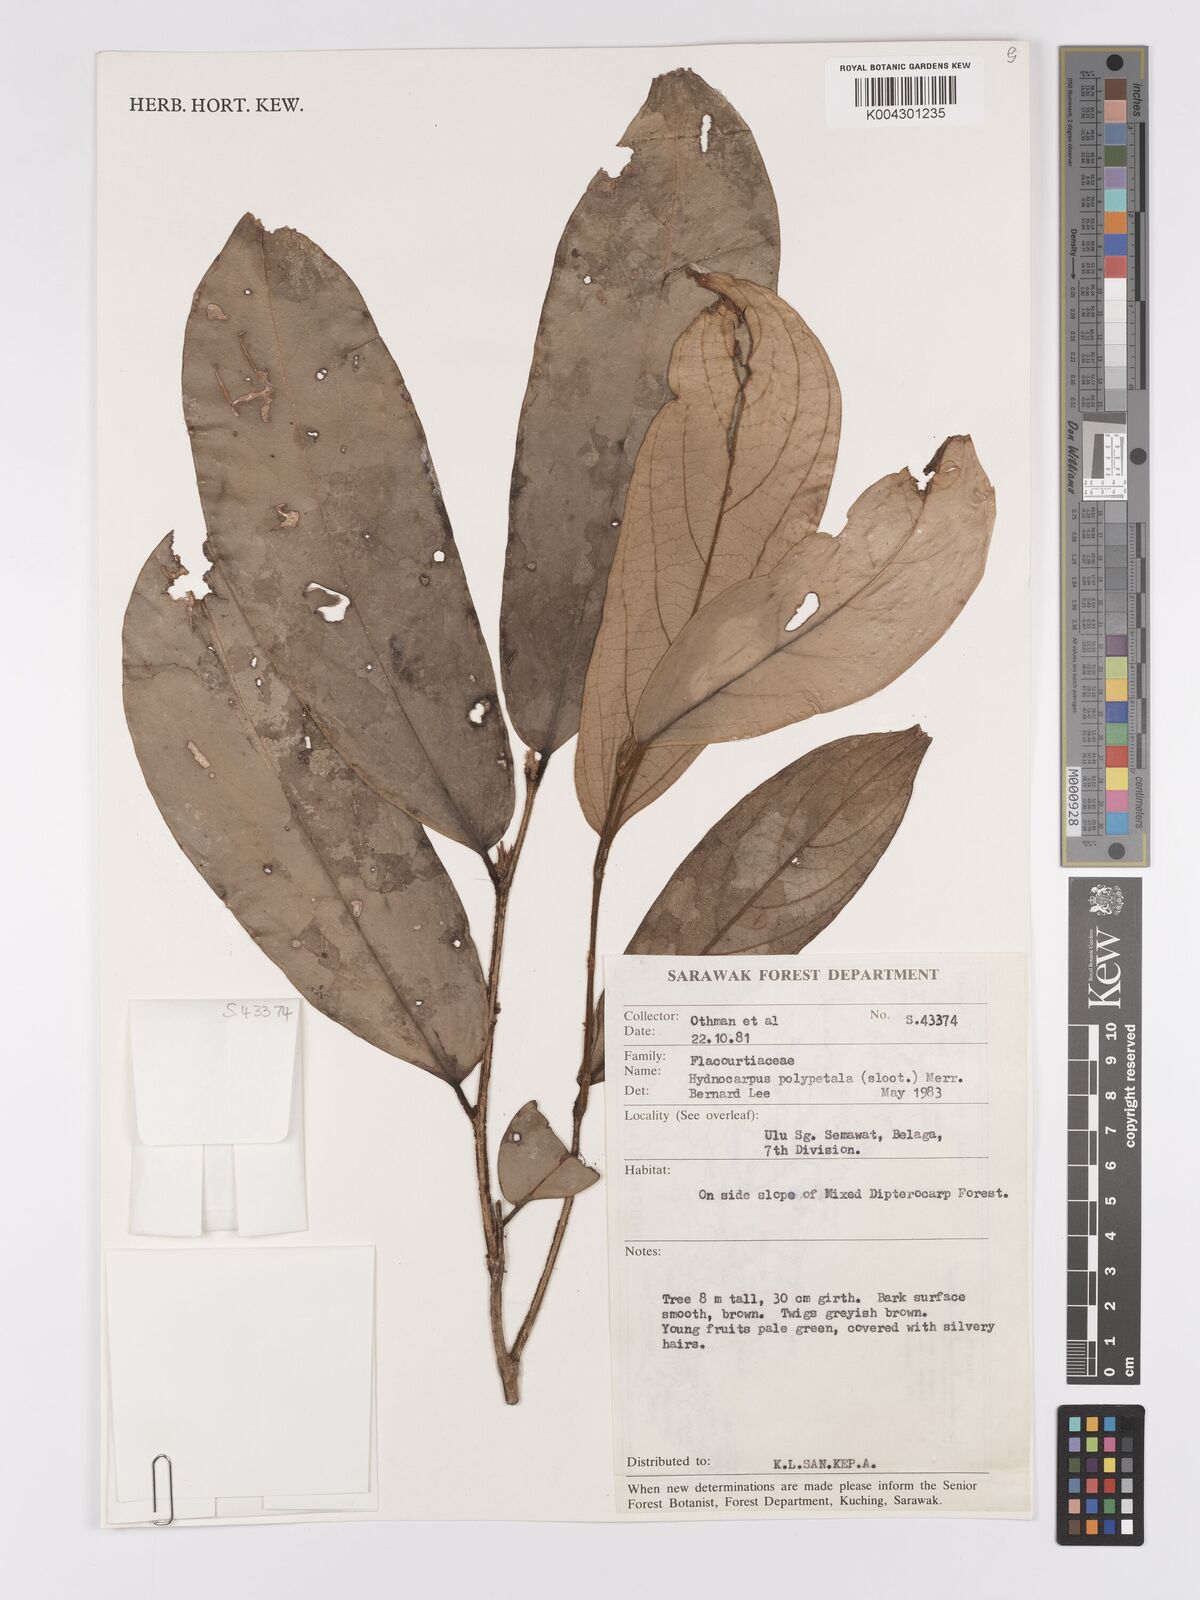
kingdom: Plantae
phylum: Tracheophyta
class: Magnoliopsida
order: Malpighiales
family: Achariaceae
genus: Hydnocarpus
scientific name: Hydnocarpus polypetalus
